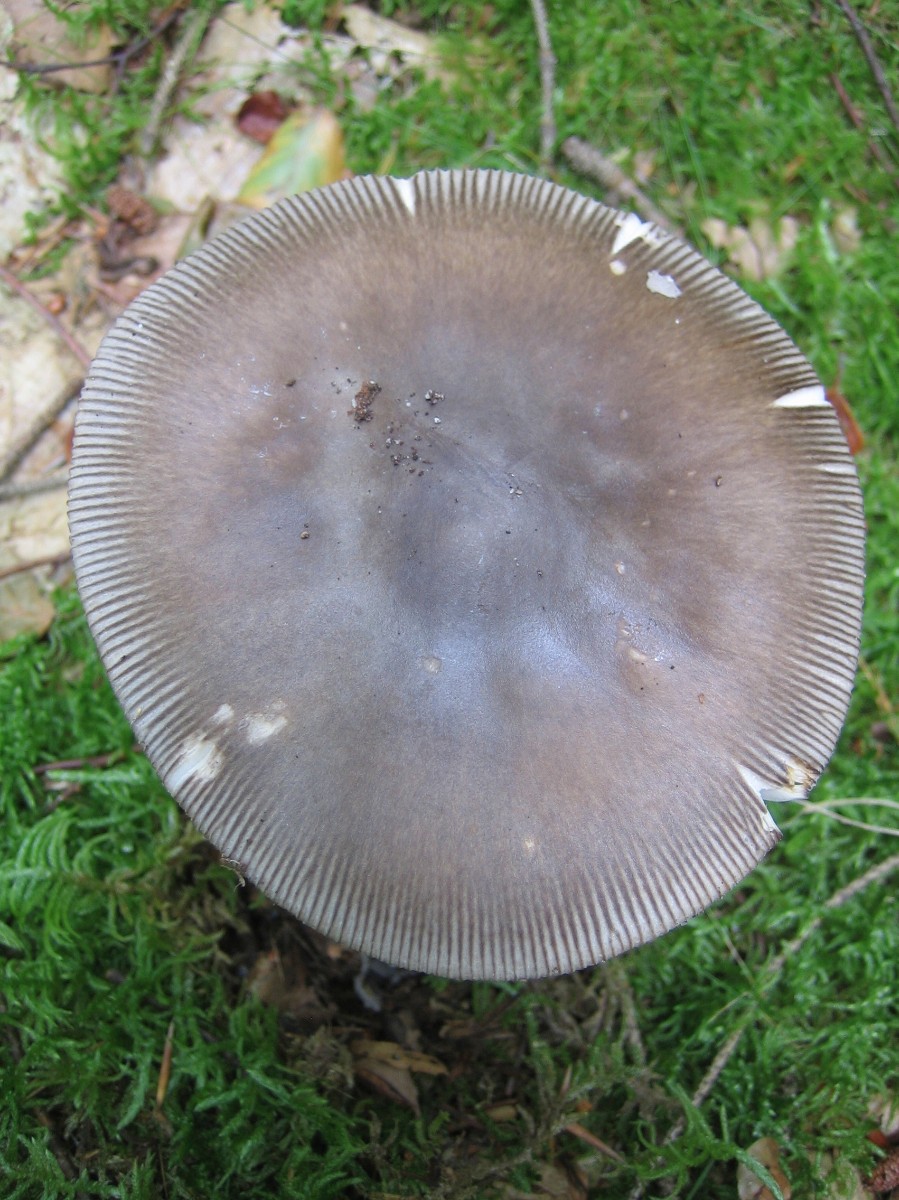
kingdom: Fungi
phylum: Basidiomycota
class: Agaricomycetes
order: Agaricales
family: Amanitaceae
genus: Amanita
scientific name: Amanita
